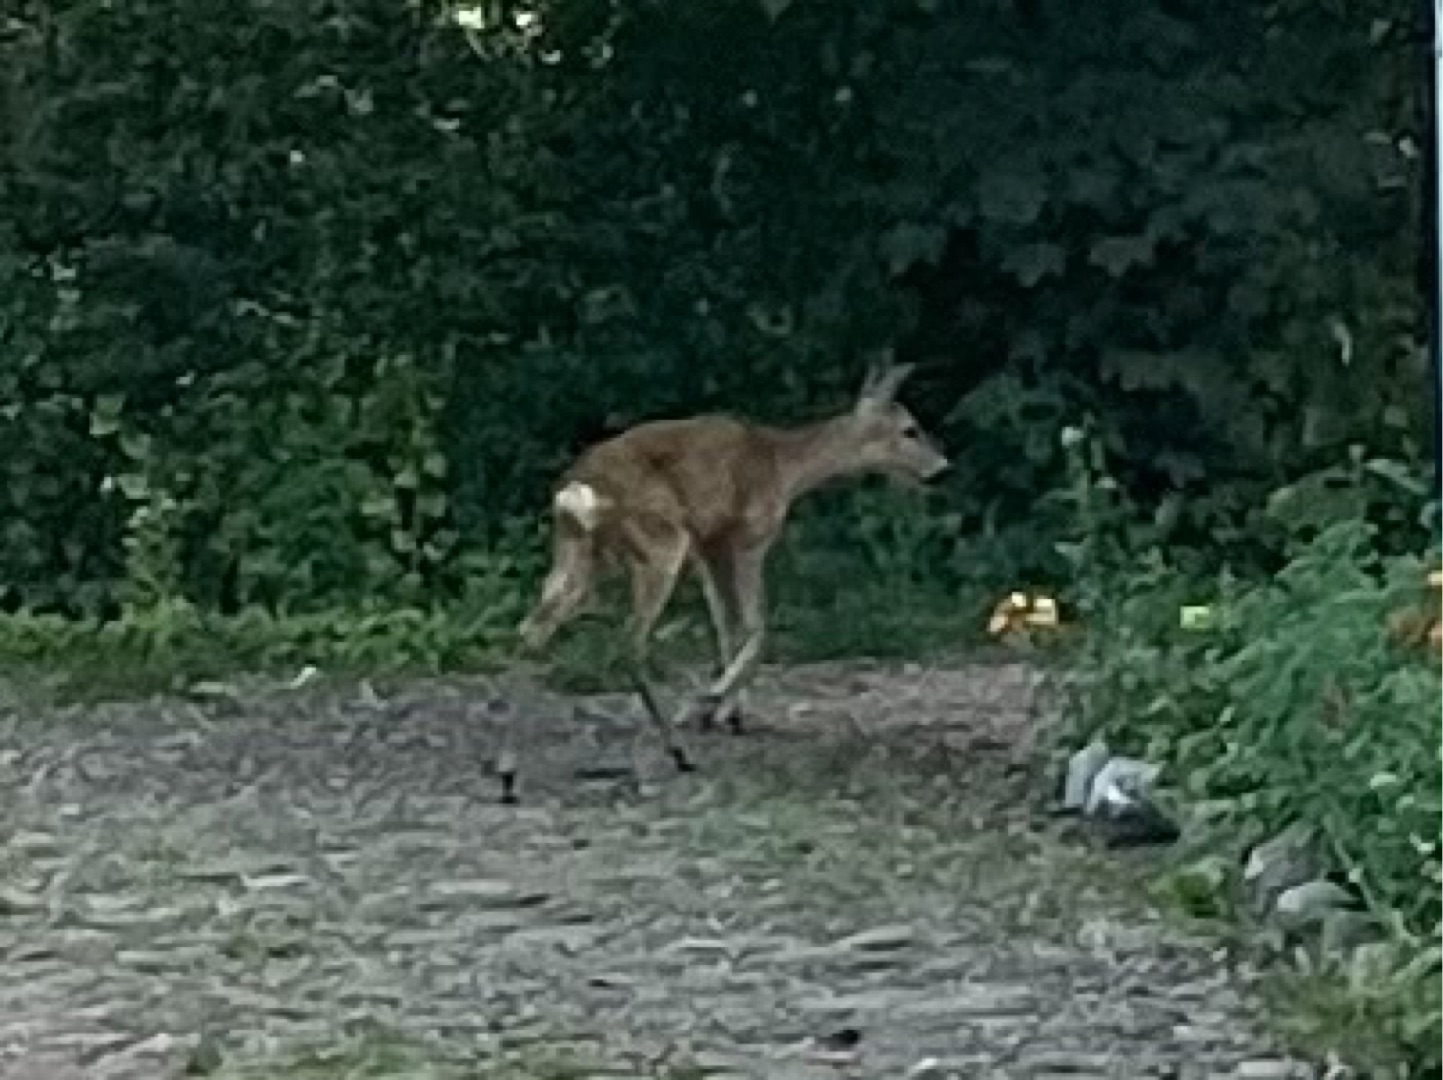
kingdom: Animalia
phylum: Chordata
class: Mammalia
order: Artiodactyla
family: Cervidae
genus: Capreolus
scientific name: Capreolus capreolus
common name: Rådyr
